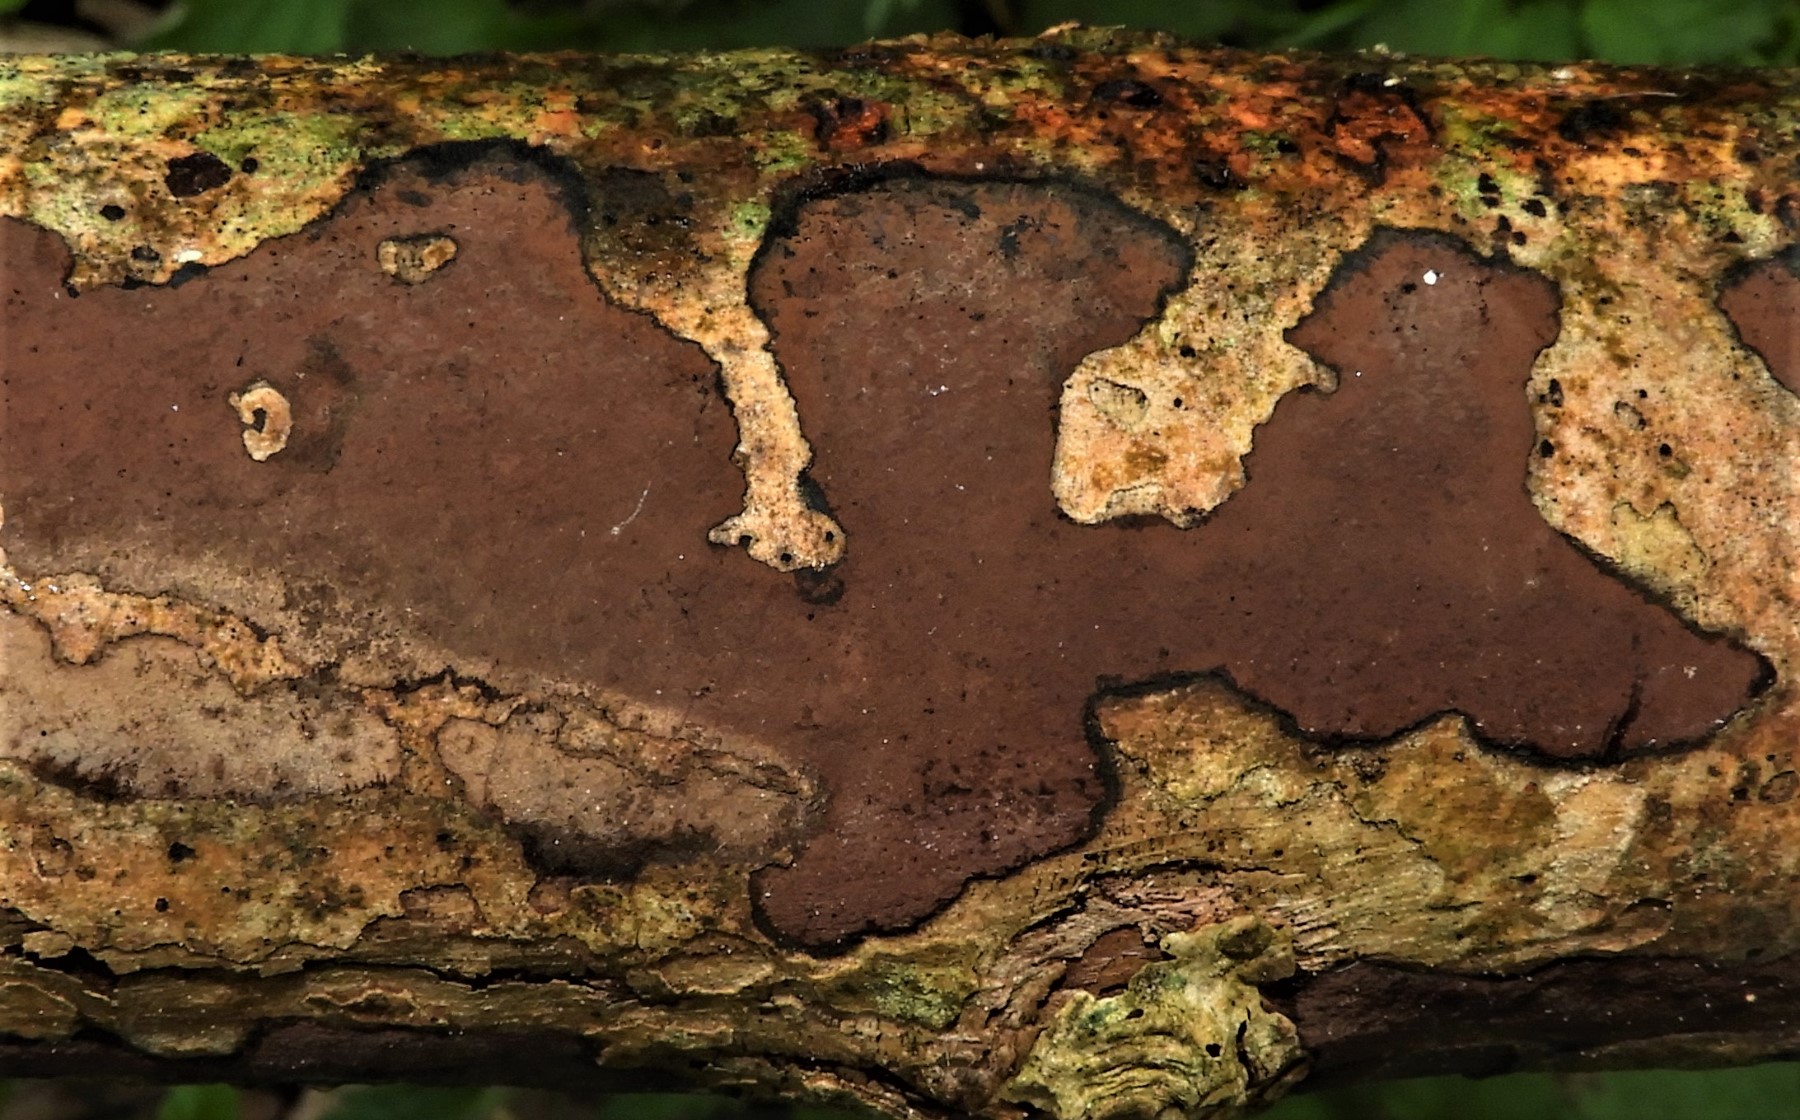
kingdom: Fungi
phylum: Ascomycota
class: Sordariomycetes
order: Xylariales
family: Hypoxylaceae
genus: Hypoxylon
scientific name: Hypoxylon petriniae
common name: nedsænket kulbær
